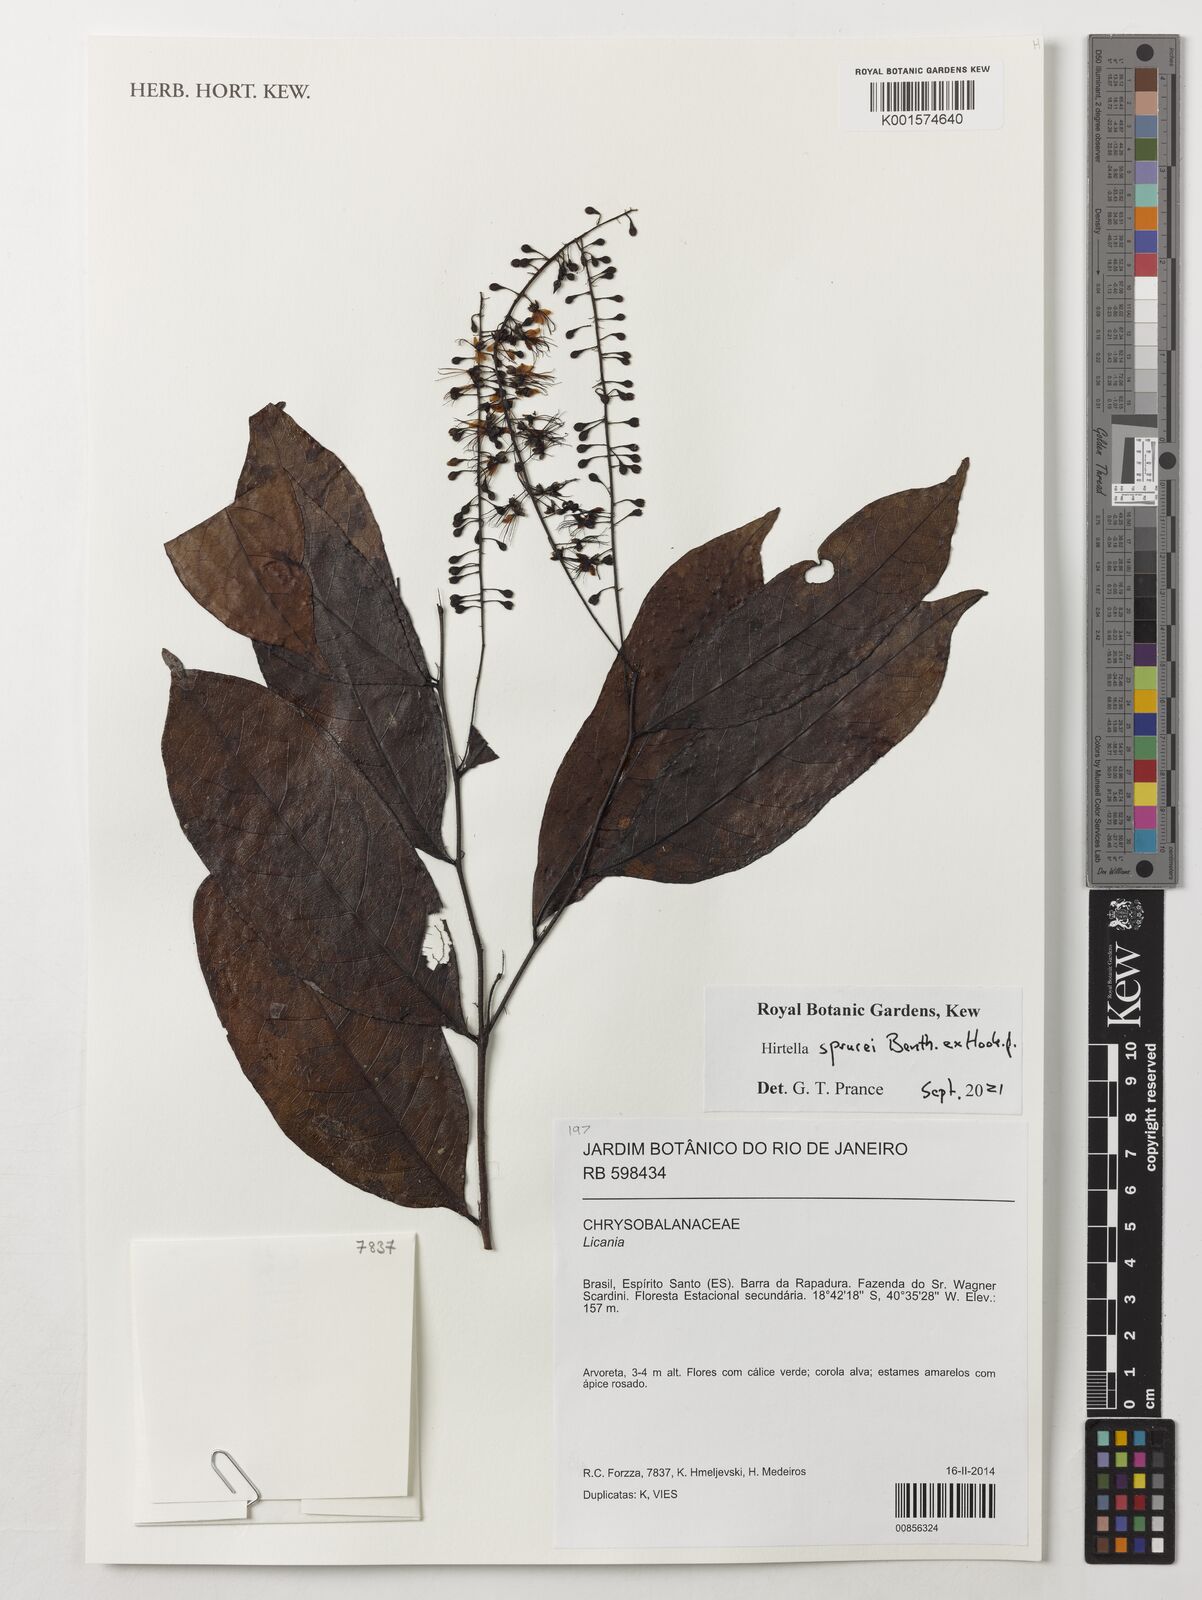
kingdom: Plantae
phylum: Tracheophyta
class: Magnoliopsida
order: Malpighiales
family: Chrysobalanaceae
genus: Hirtella
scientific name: Hirtella sprucei
